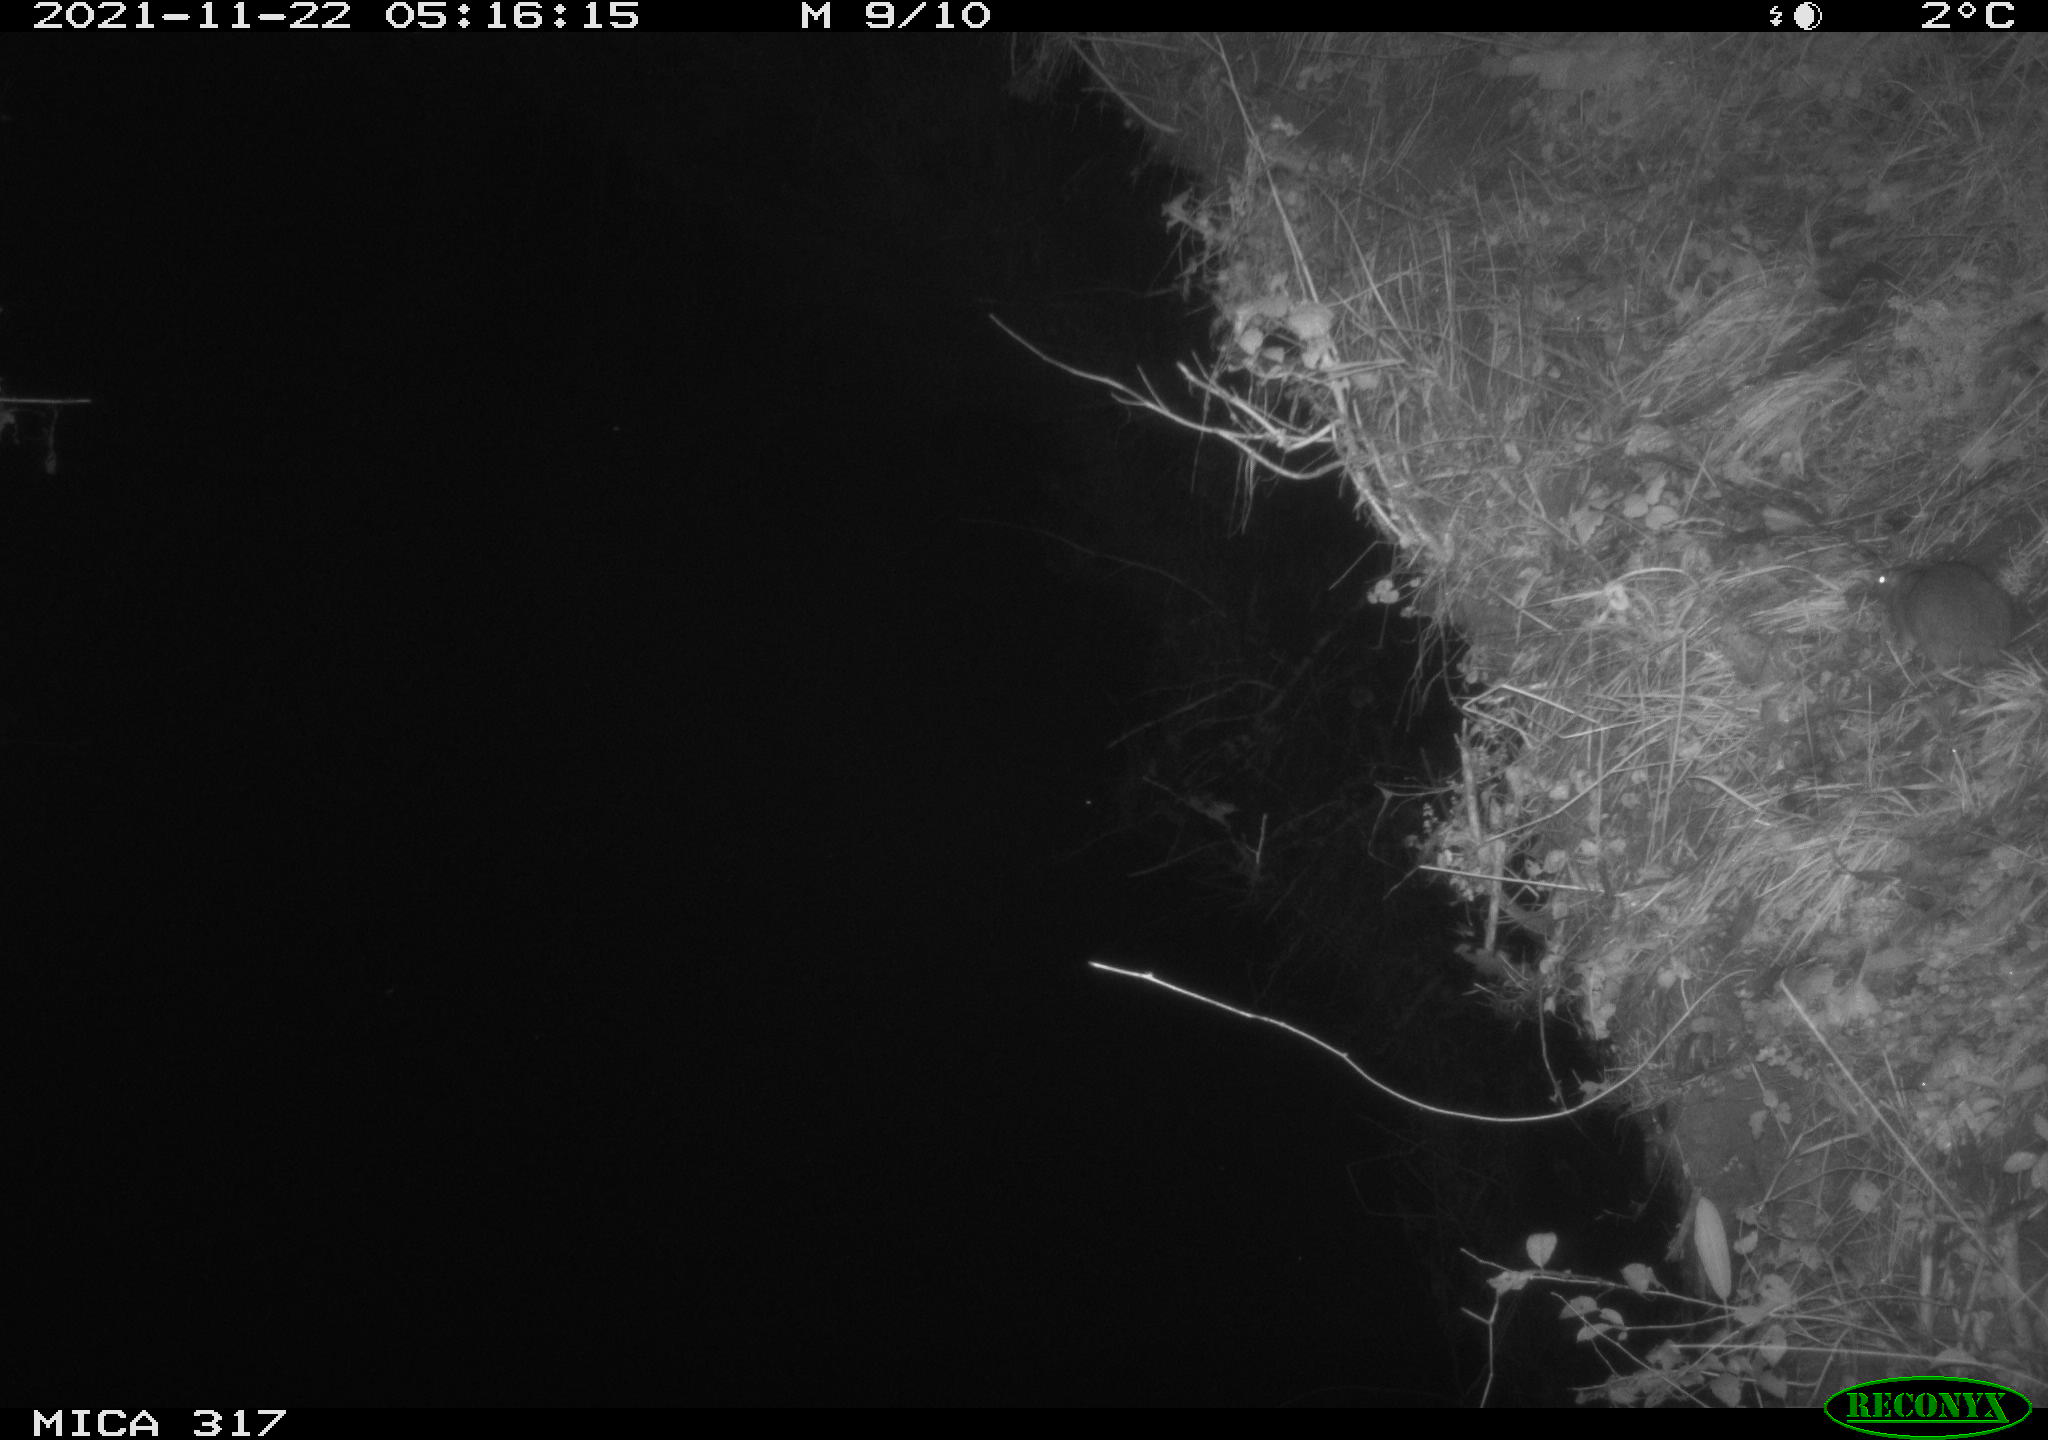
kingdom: Animalia
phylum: Chordata
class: Mammalia
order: Rodentia
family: Muridae
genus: Rattus
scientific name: Rattus norvegicus
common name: Brown rat
